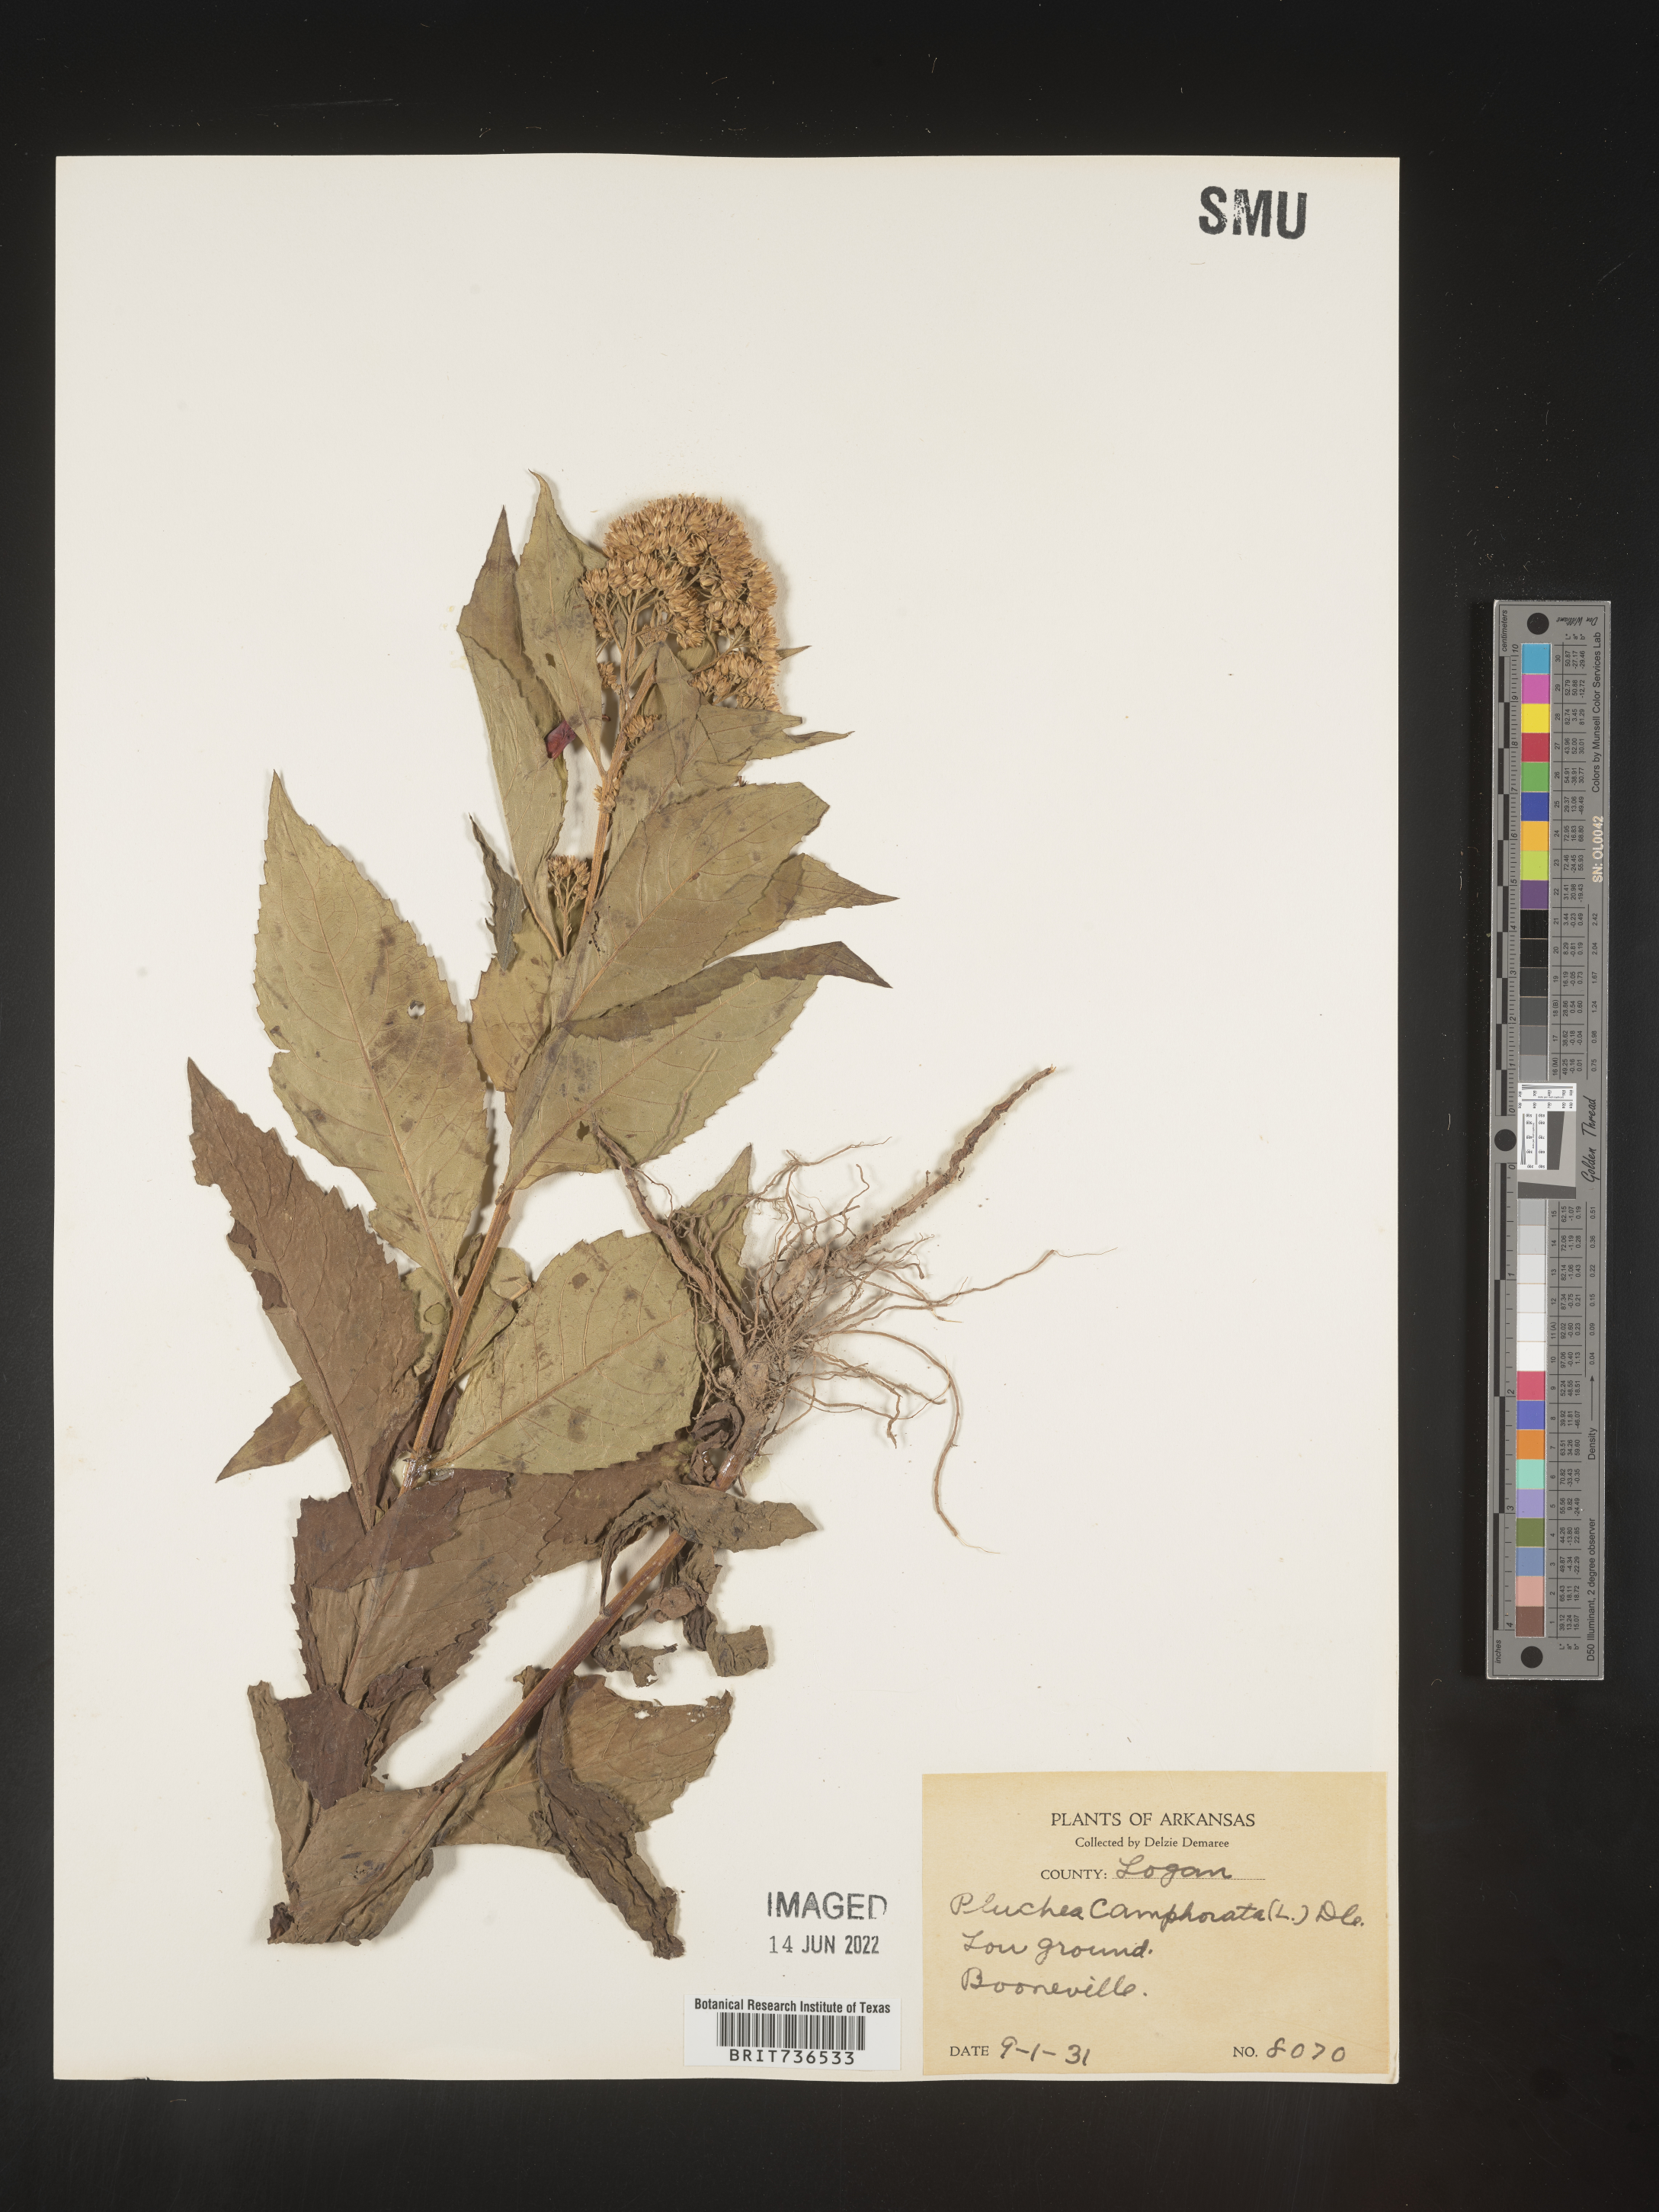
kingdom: Plantae
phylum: Tracheophyta
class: Magnoliopsida
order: Asterales
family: Asteraceae
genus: Pluchea
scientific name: Pluchea camphorata
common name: Camphor pluchea
